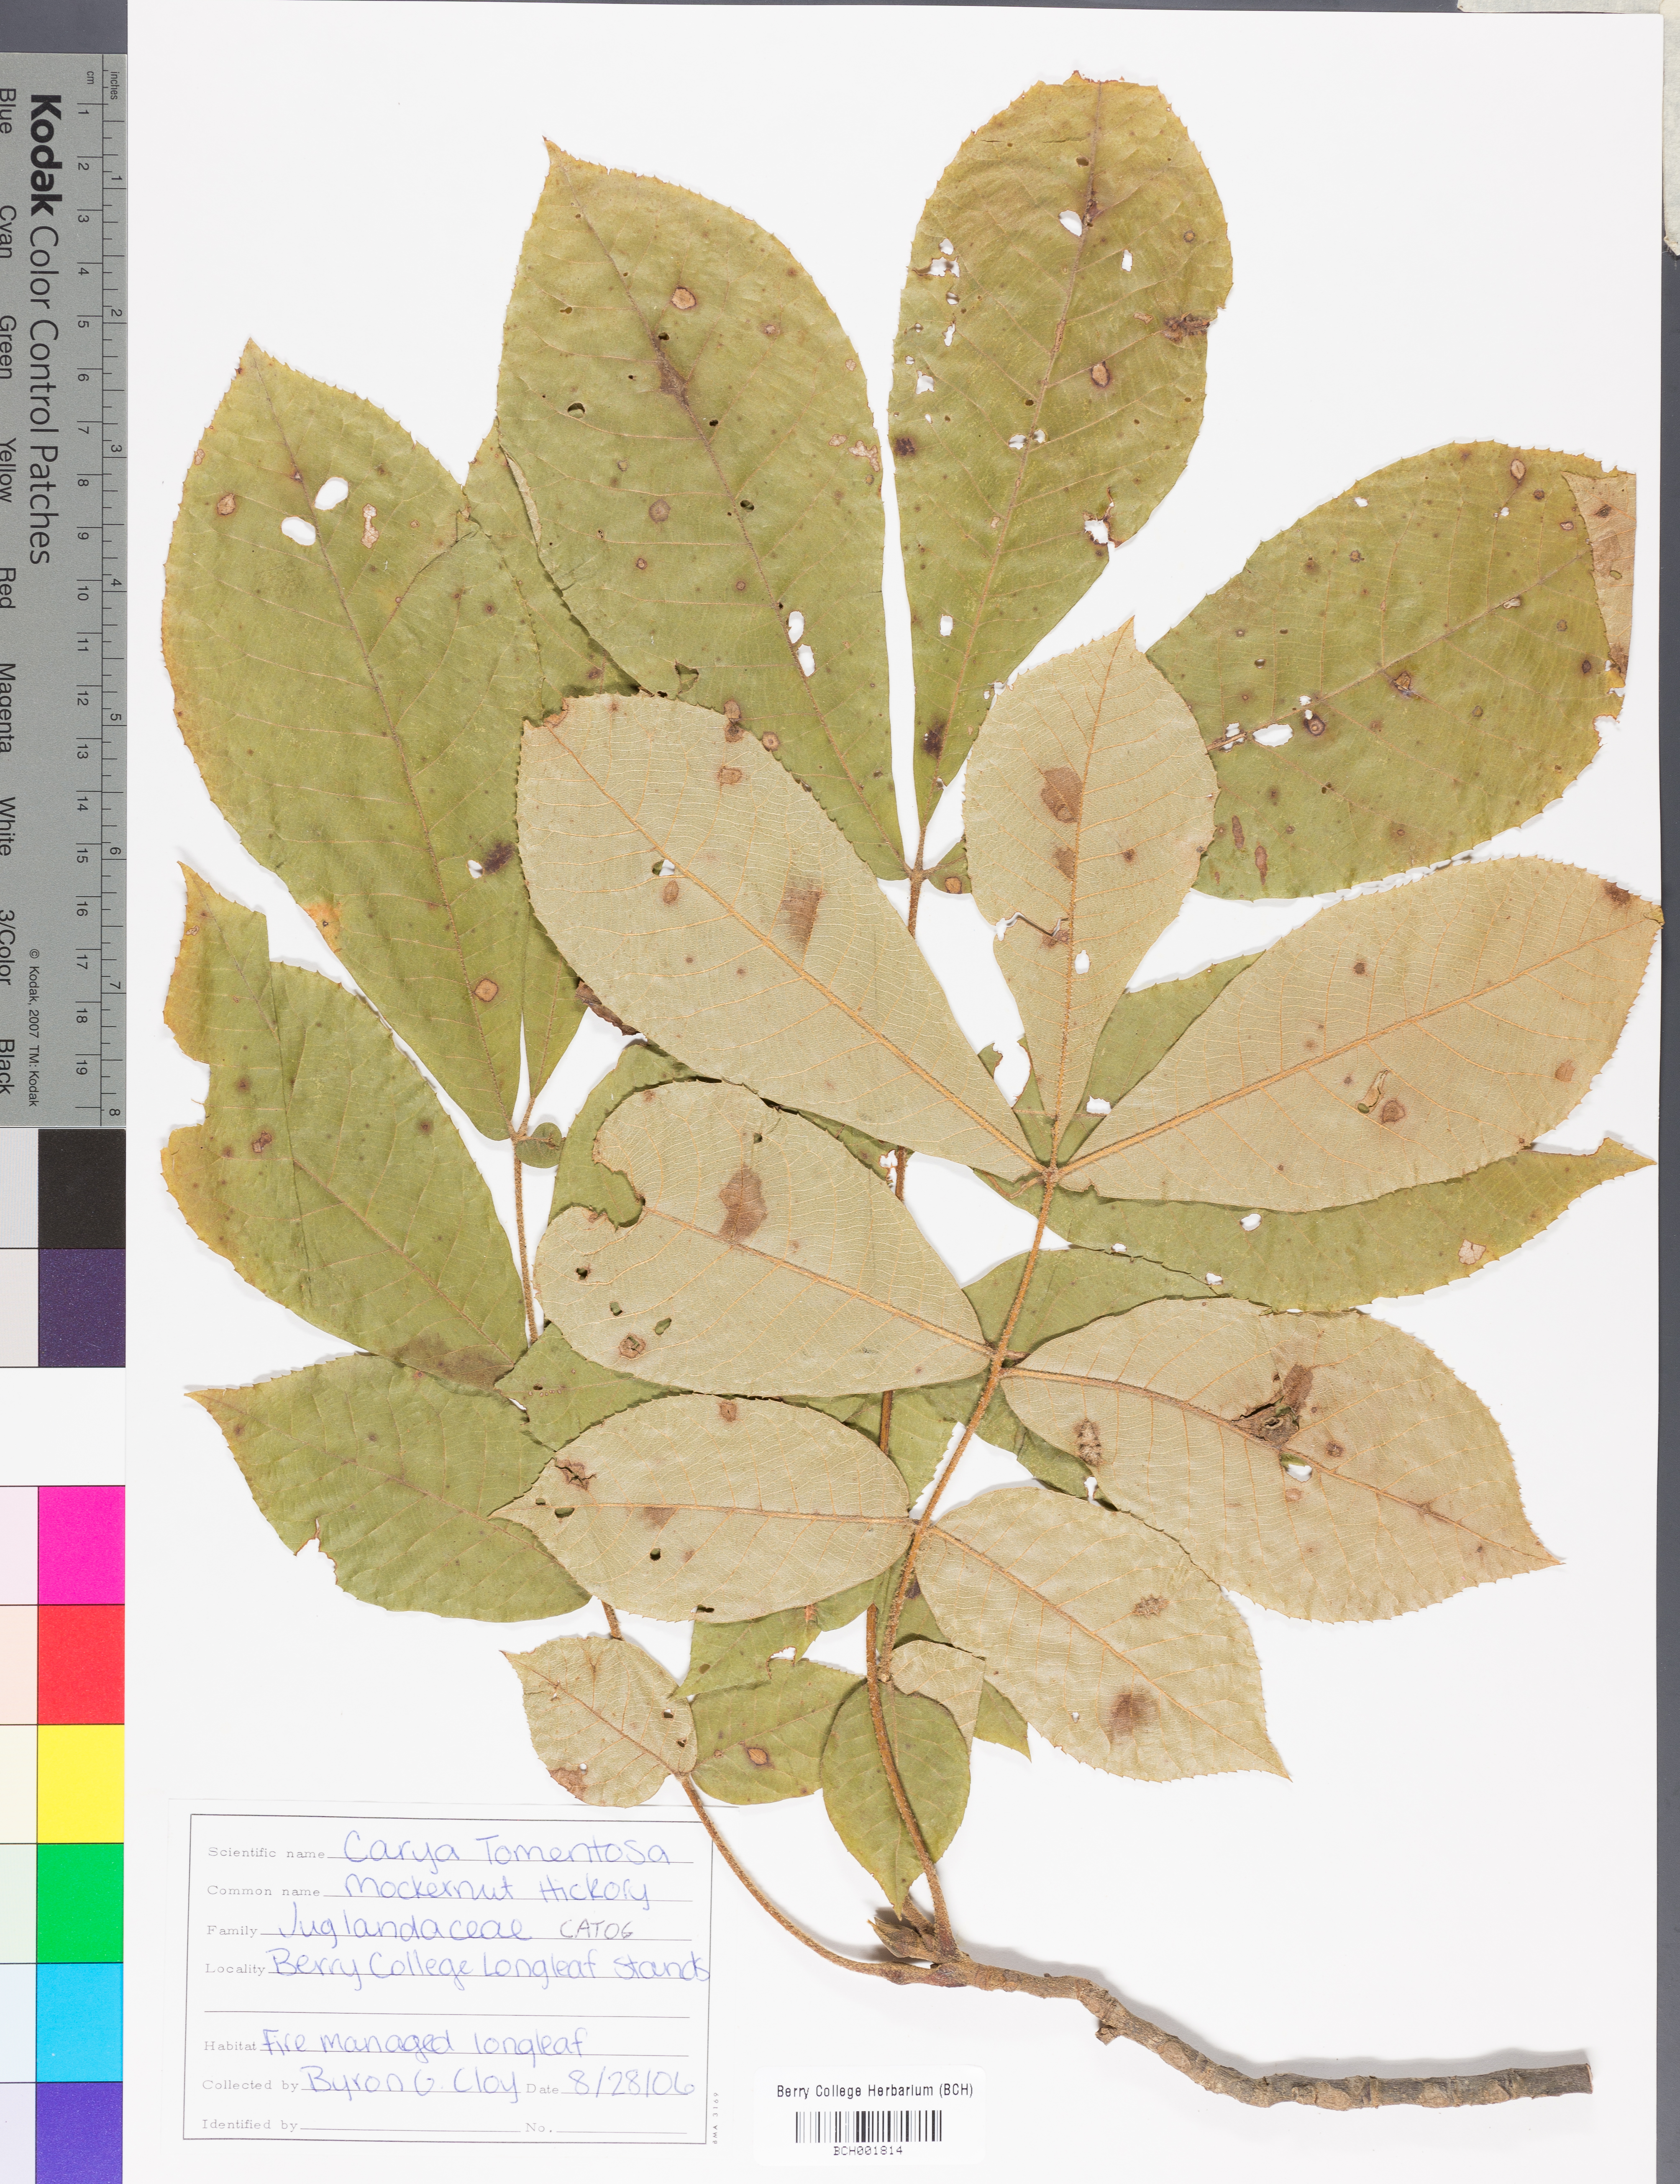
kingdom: Plantae
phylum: Tracheophyta
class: Magnoliopsida
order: Fagales
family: Juglandaceae
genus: Carya
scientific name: Carya alba
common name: Mockernut hickory
